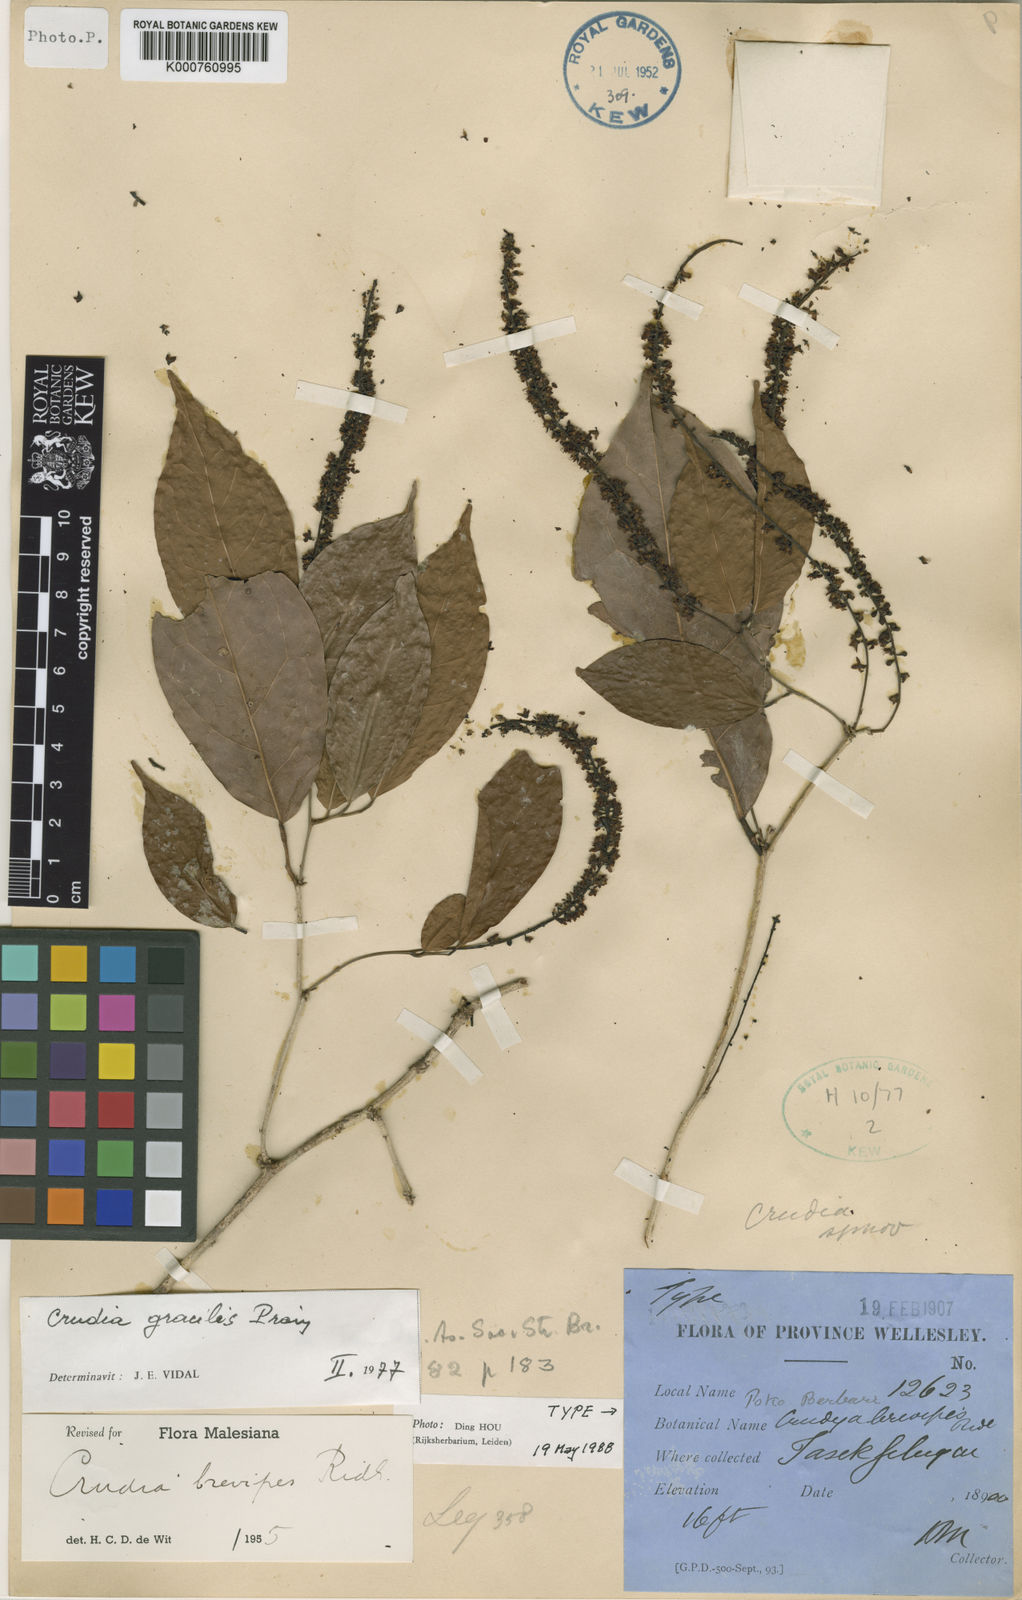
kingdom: Plantae
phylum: Tracheophyta
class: Magnoliopsida
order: Fabales
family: Fabaceae
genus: Crudia
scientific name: Crudia gracilis
